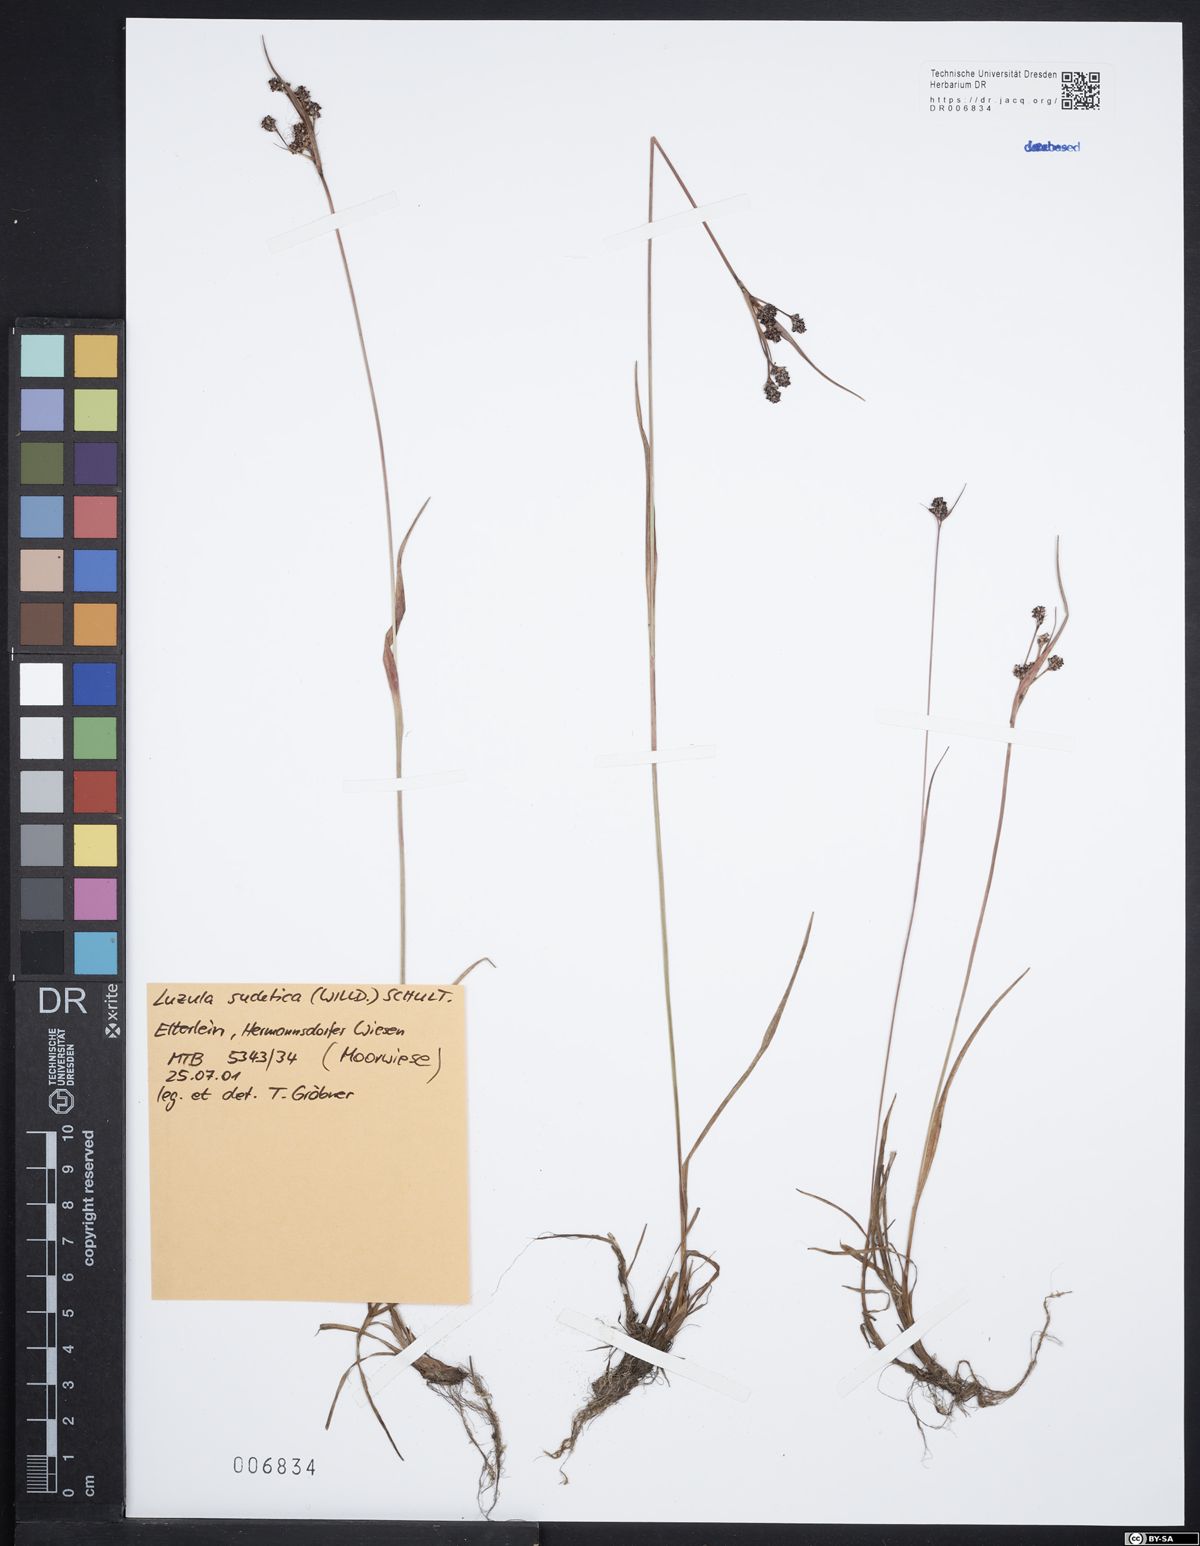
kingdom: Plantae
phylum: Tracheophyta
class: Liliopsida
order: Poales
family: Juncaceae
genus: Luzula
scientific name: Luzula sudetica
